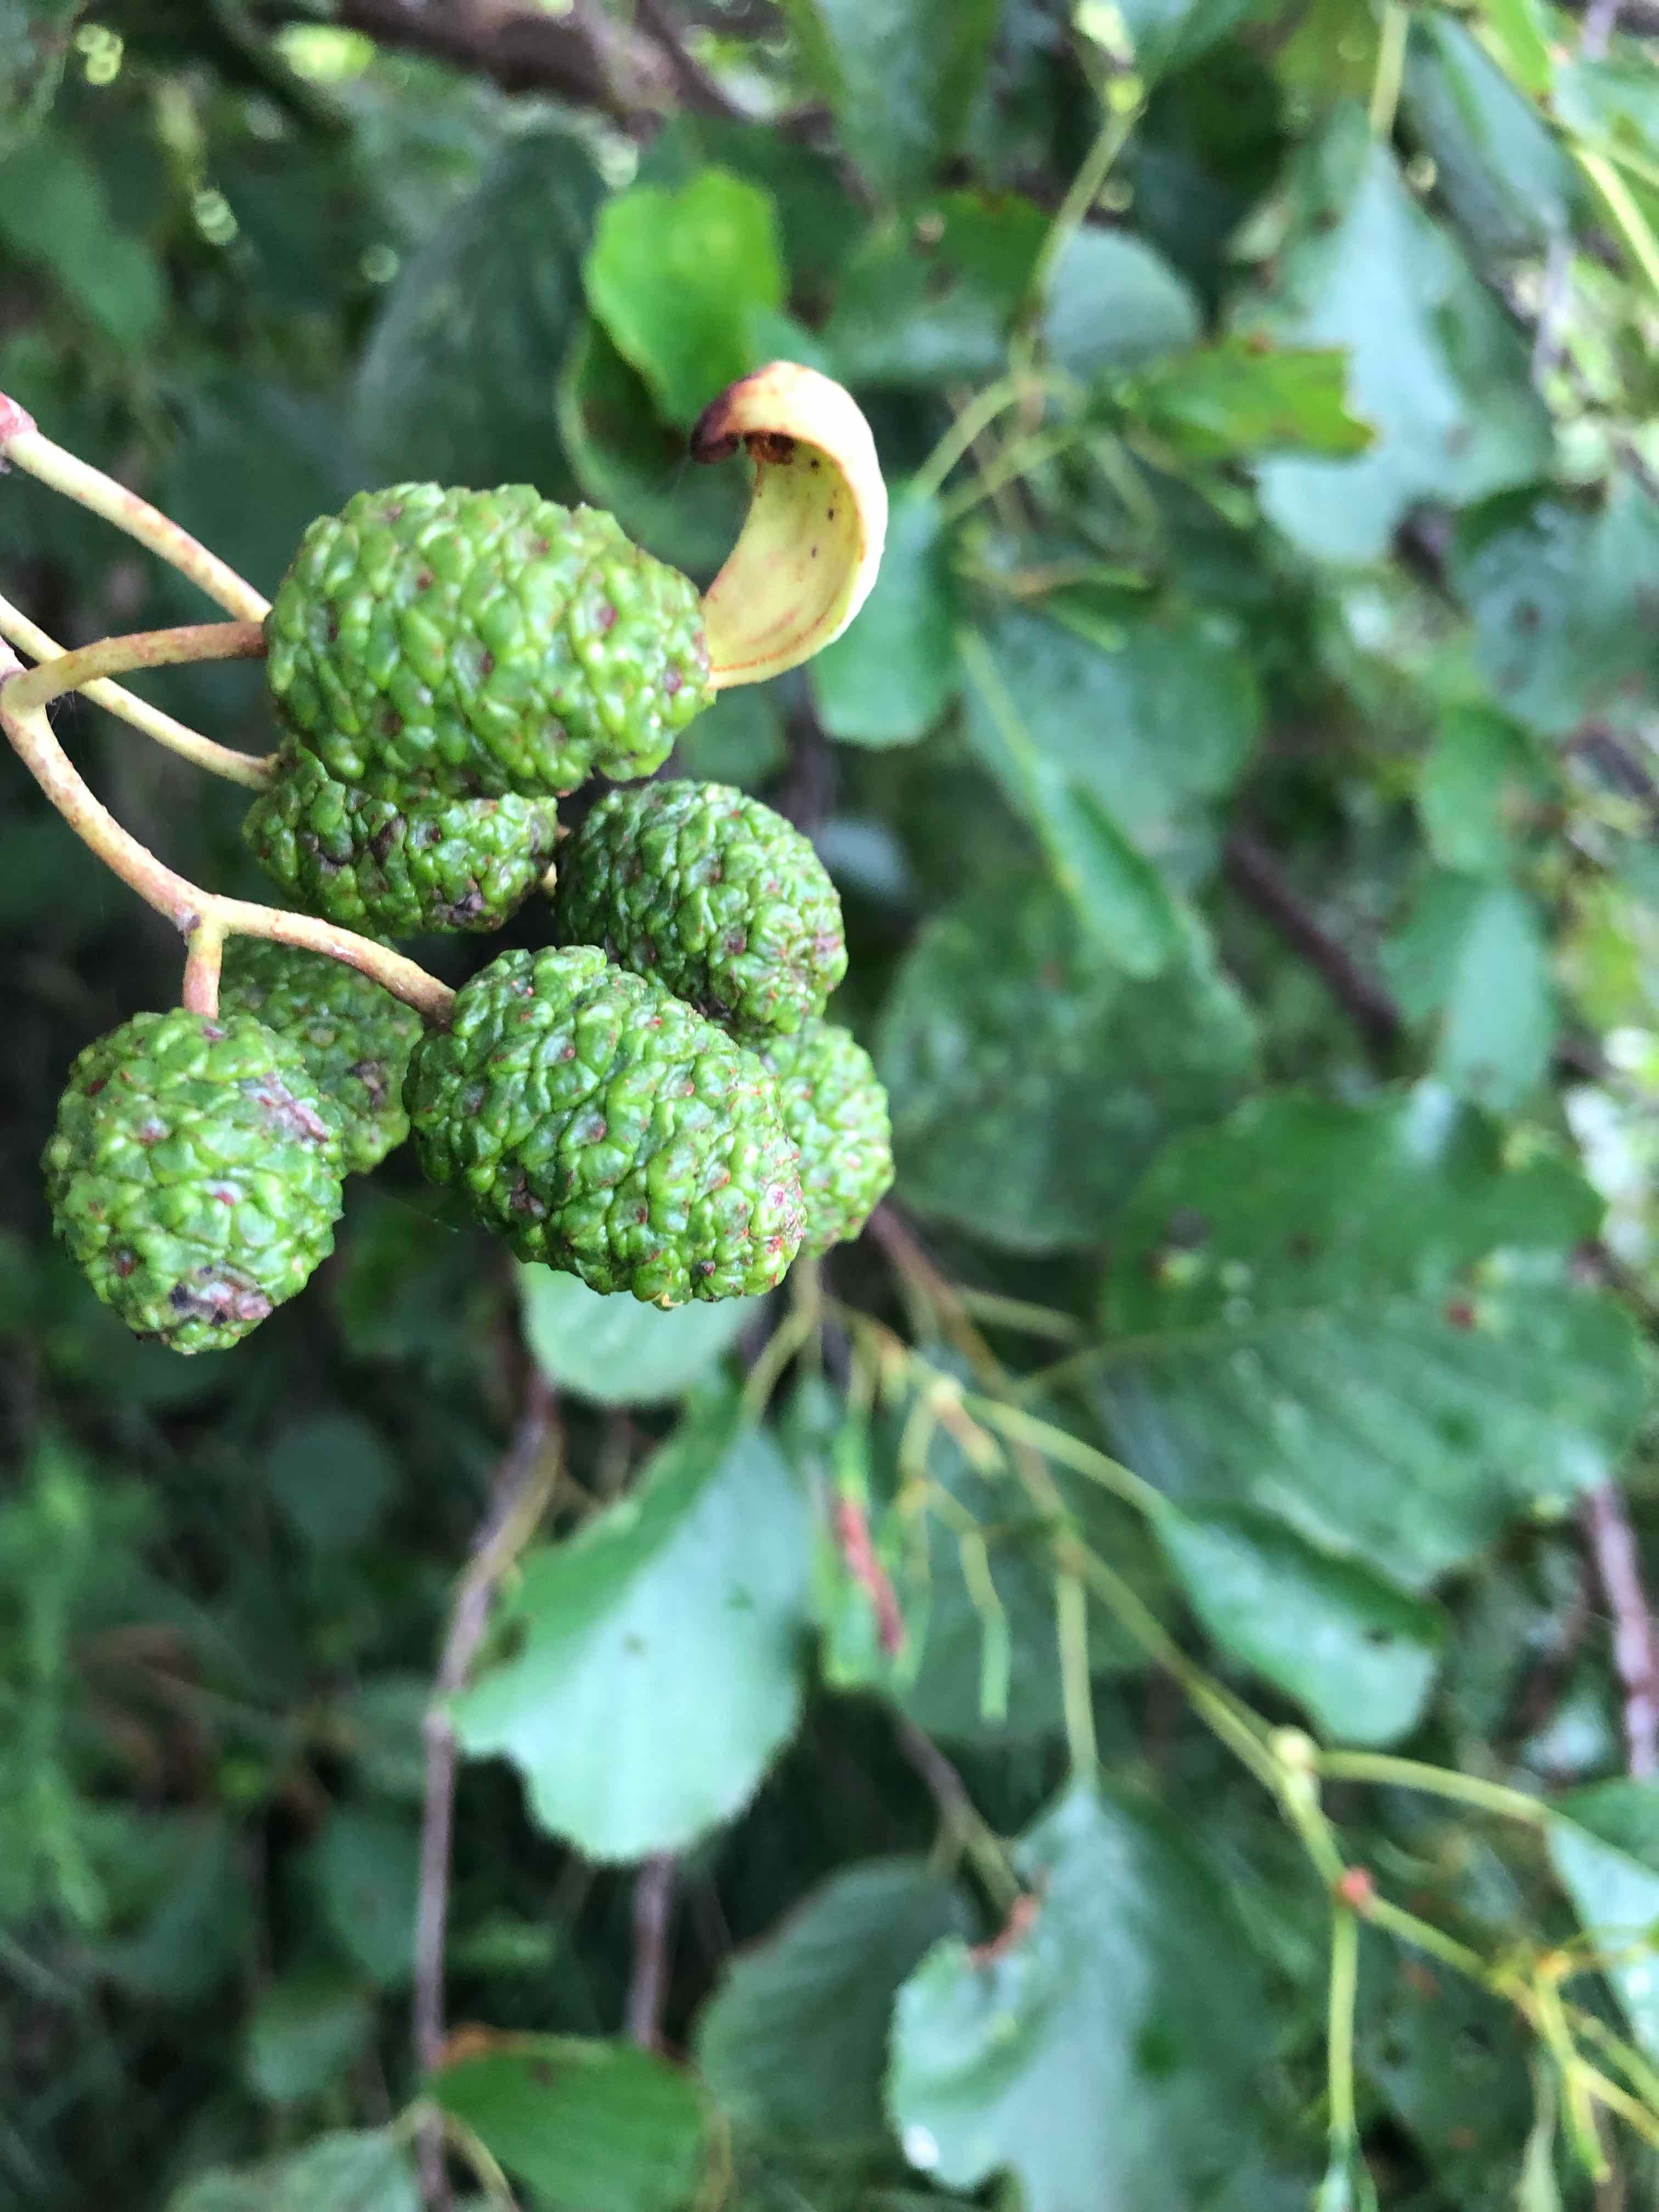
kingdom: Fungi
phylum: Ascomycota
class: Taphrinomycetes
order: Taphrinales
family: Taphrinaceae
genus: Taphrina
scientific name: Taphrina alni
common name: Alder tongue
